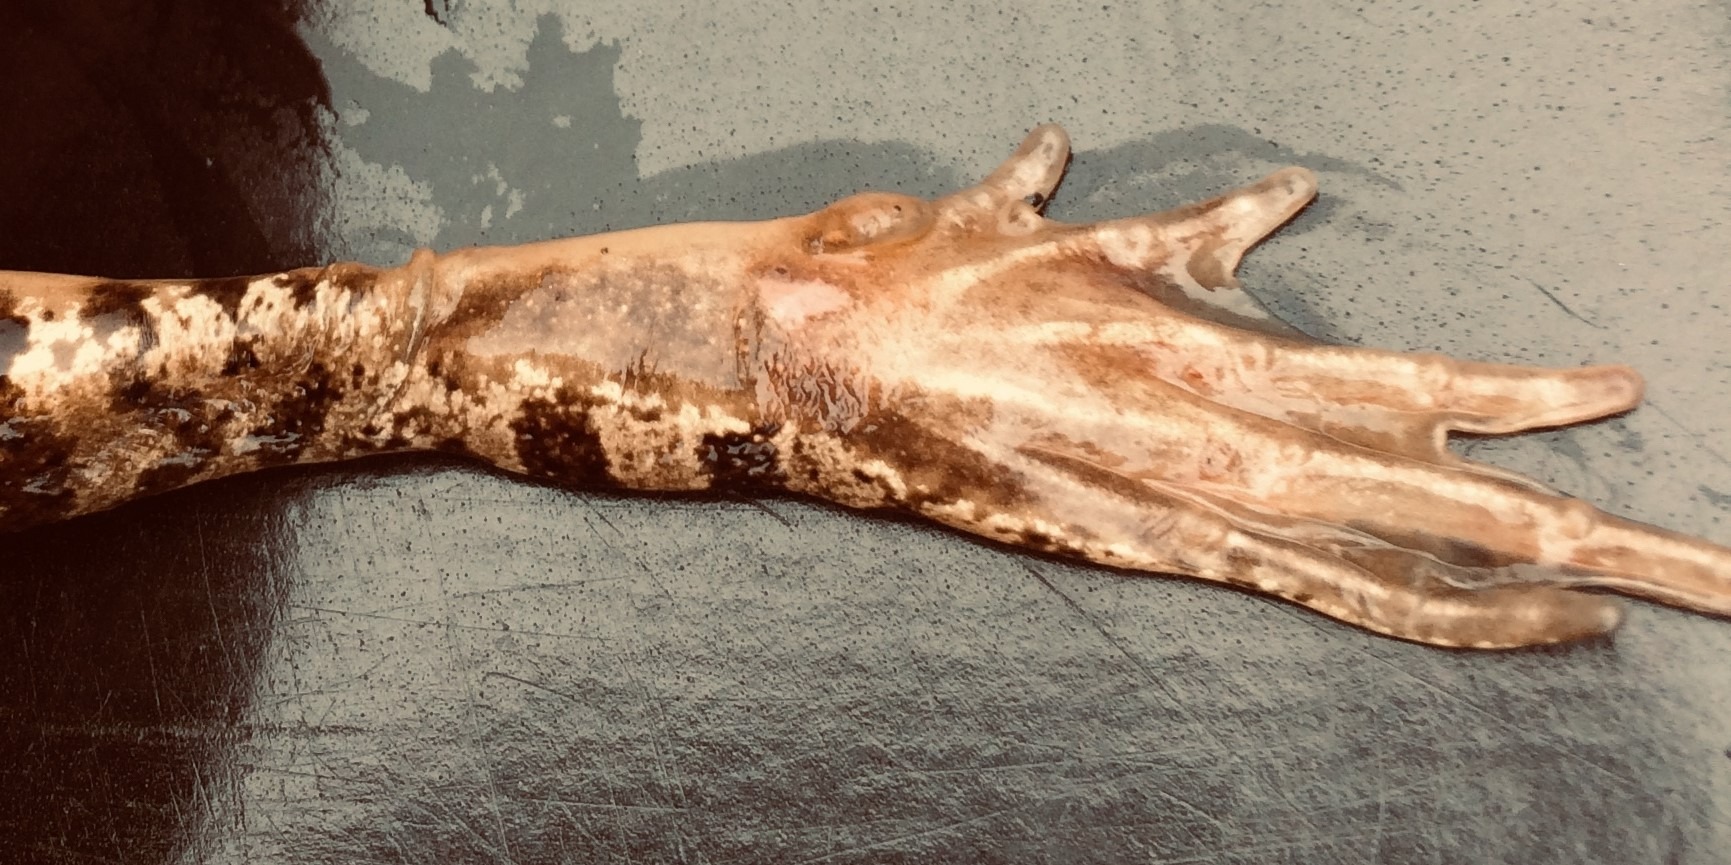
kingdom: Animalia
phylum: Chordata
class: Amphibia
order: Anura
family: Ranidae
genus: Rana
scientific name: Rana arvalis
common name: Spidssnudet frø
